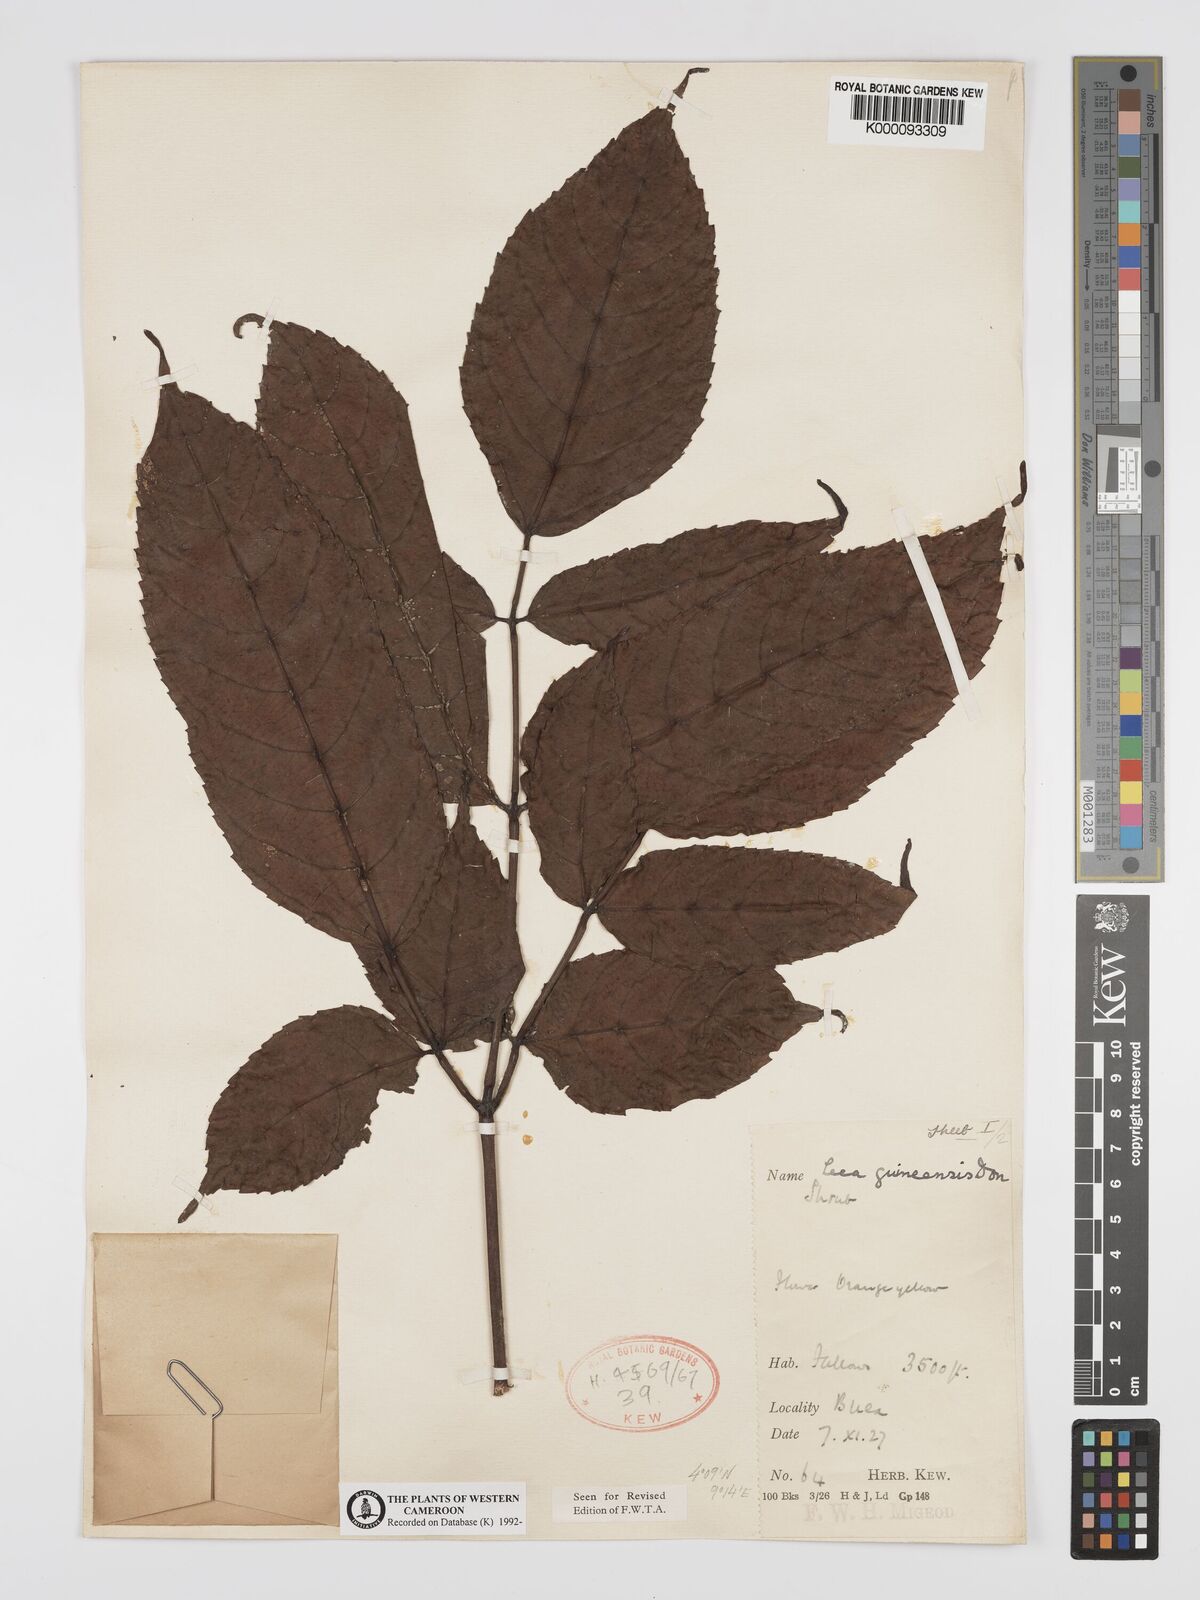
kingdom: Plantae
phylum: Tracheophyta
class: Magnoliopsida
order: Vitales
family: Vitaceae
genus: Leea
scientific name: Leea guineensis
